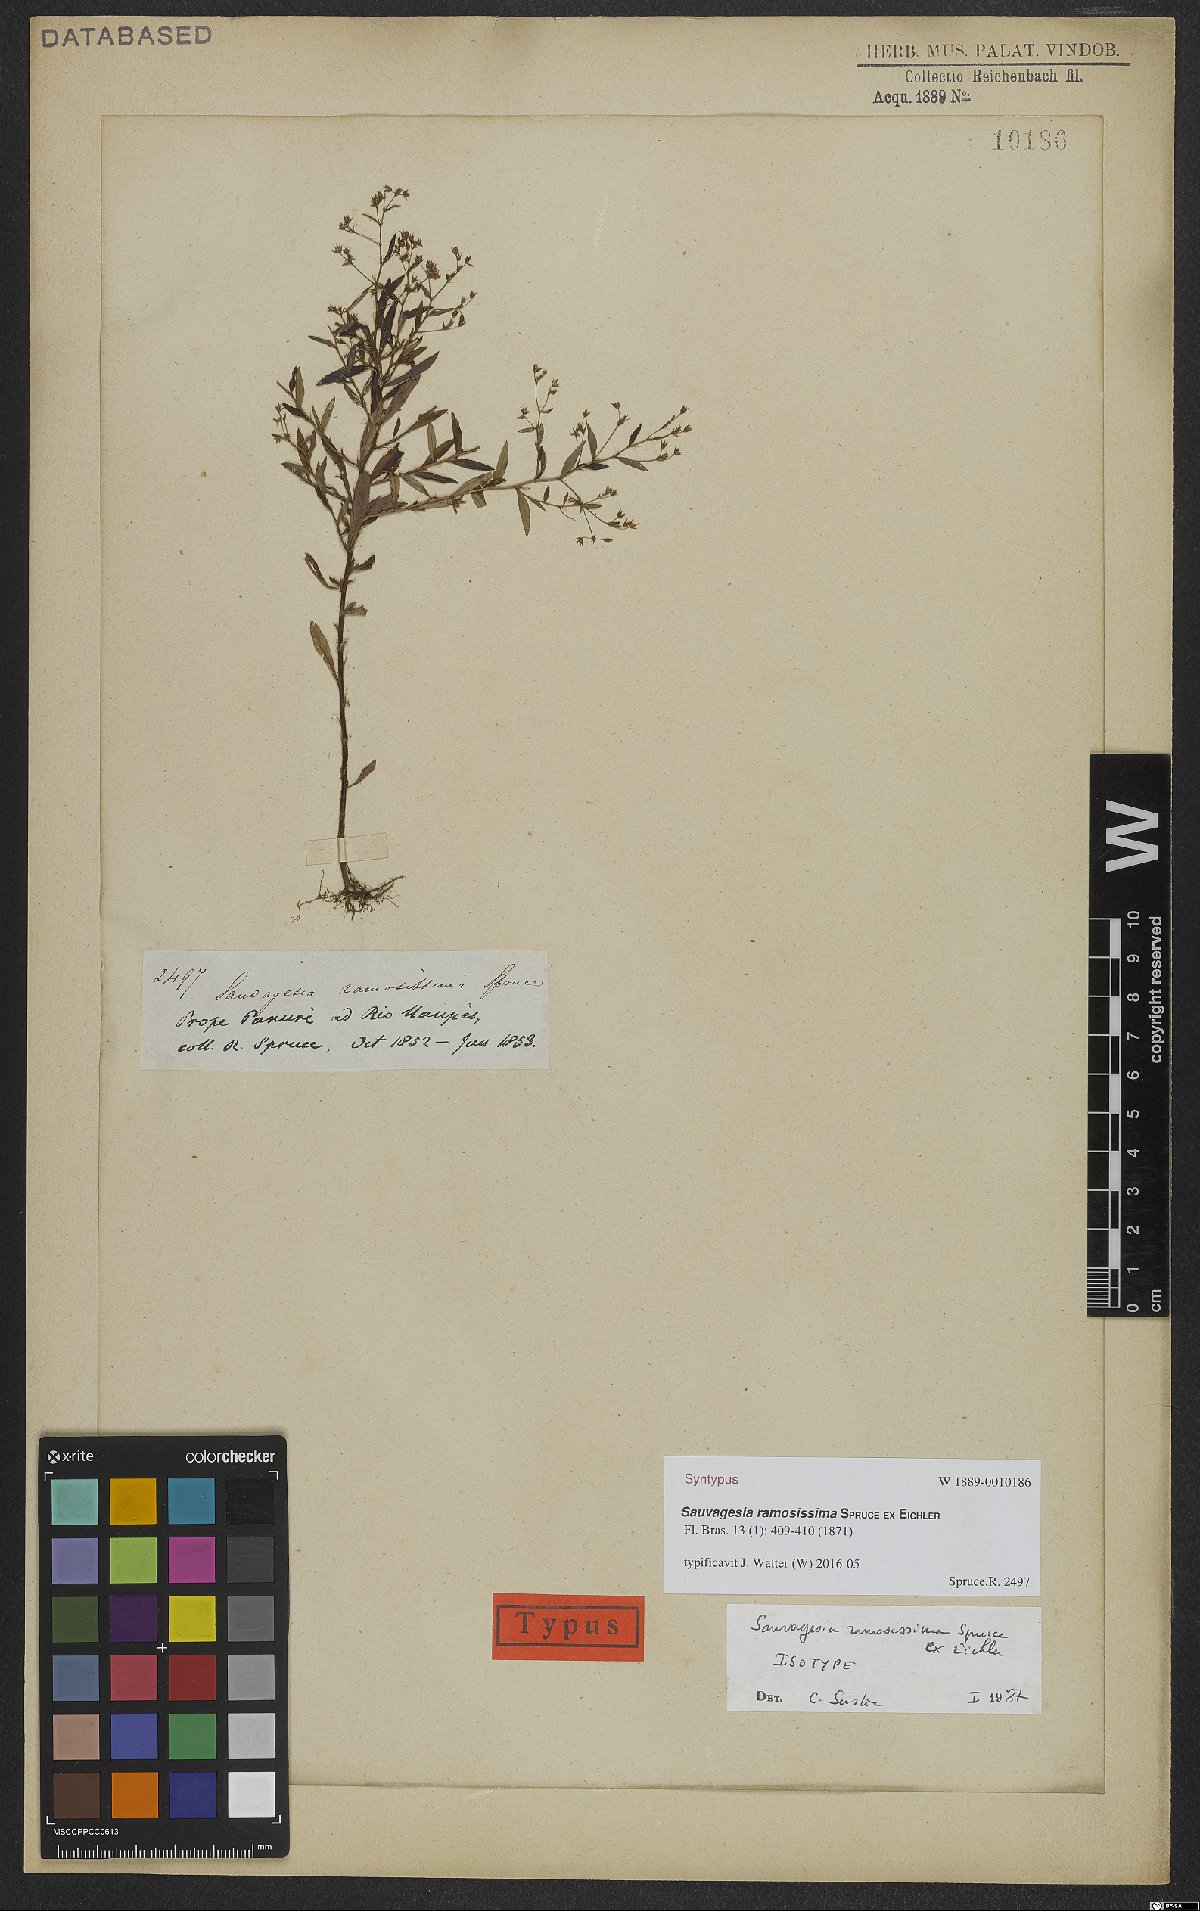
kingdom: Plantae
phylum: Tracheophyta
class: Magnoliopsida
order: Malpighiales
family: Ochnaceae
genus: Sauvagesia
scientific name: Sauvagesia ramosissima
